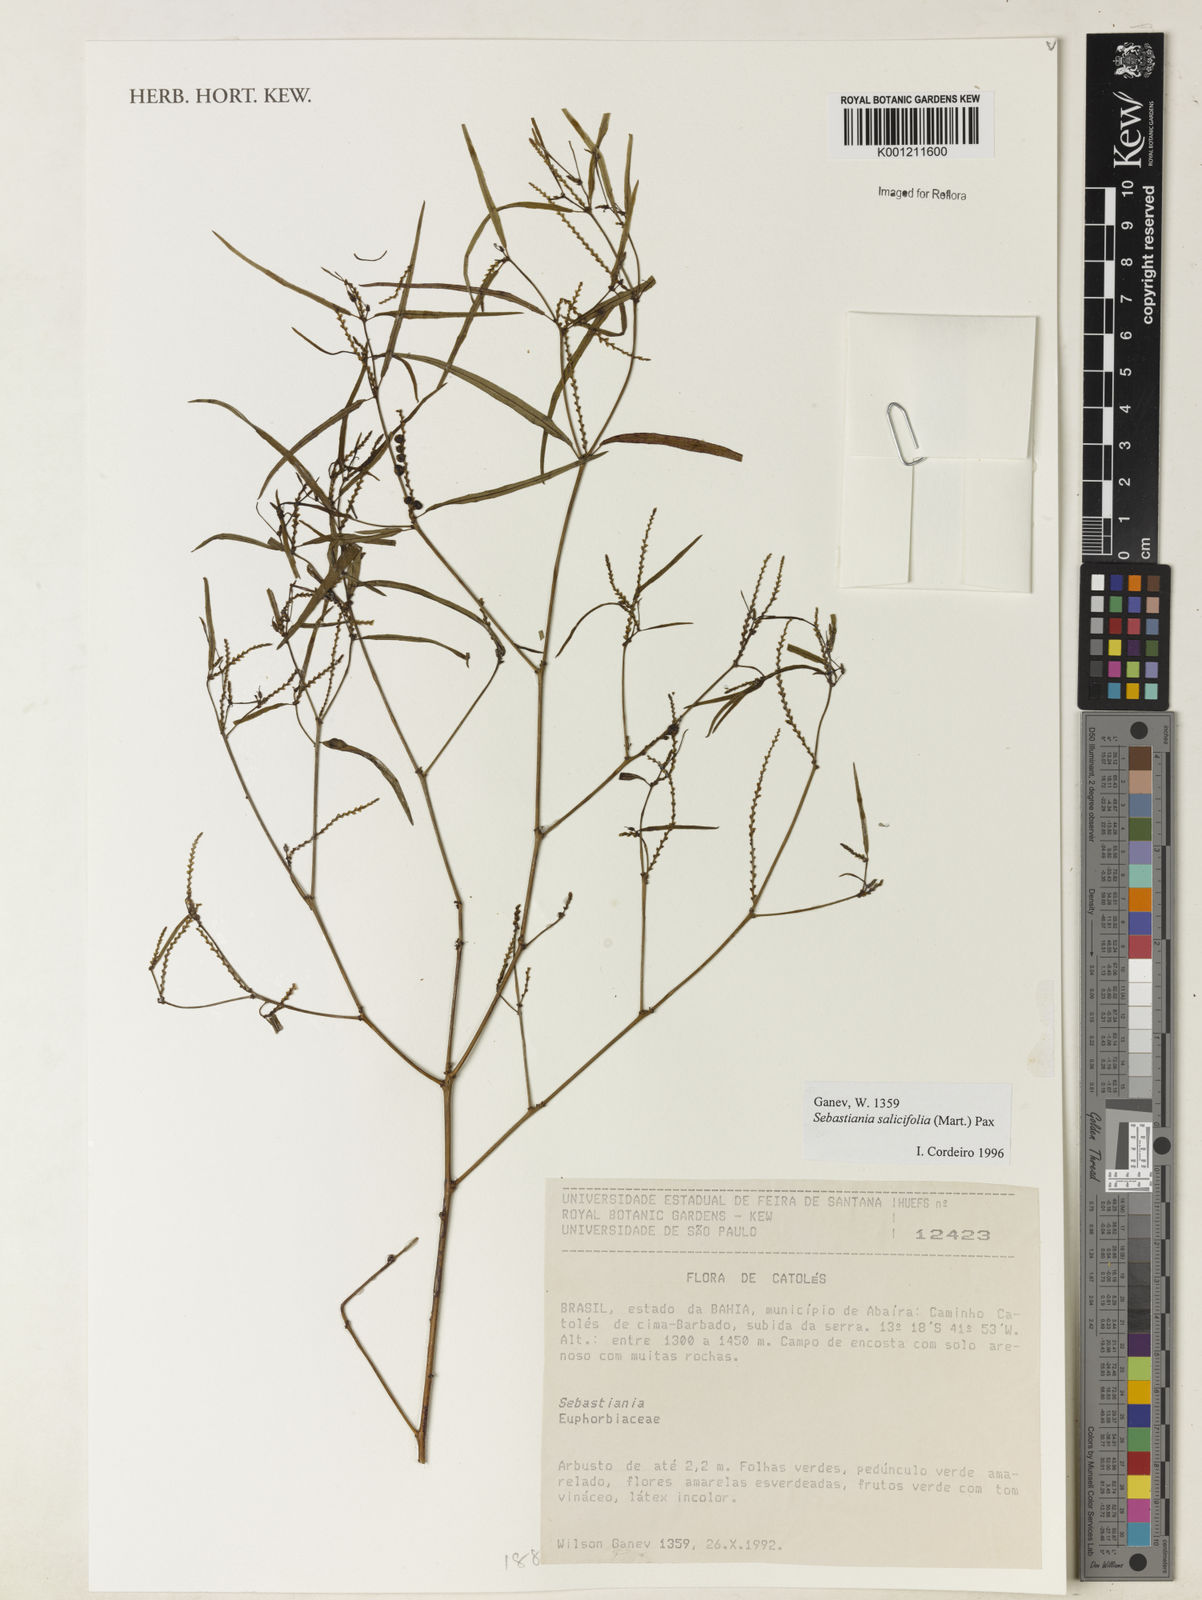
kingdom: Plantae
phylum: Tracheophyta
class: Magnoliopsida
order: Malpighiales
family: Euphorbiaceae
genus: Microstachys
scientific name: Microstachys
